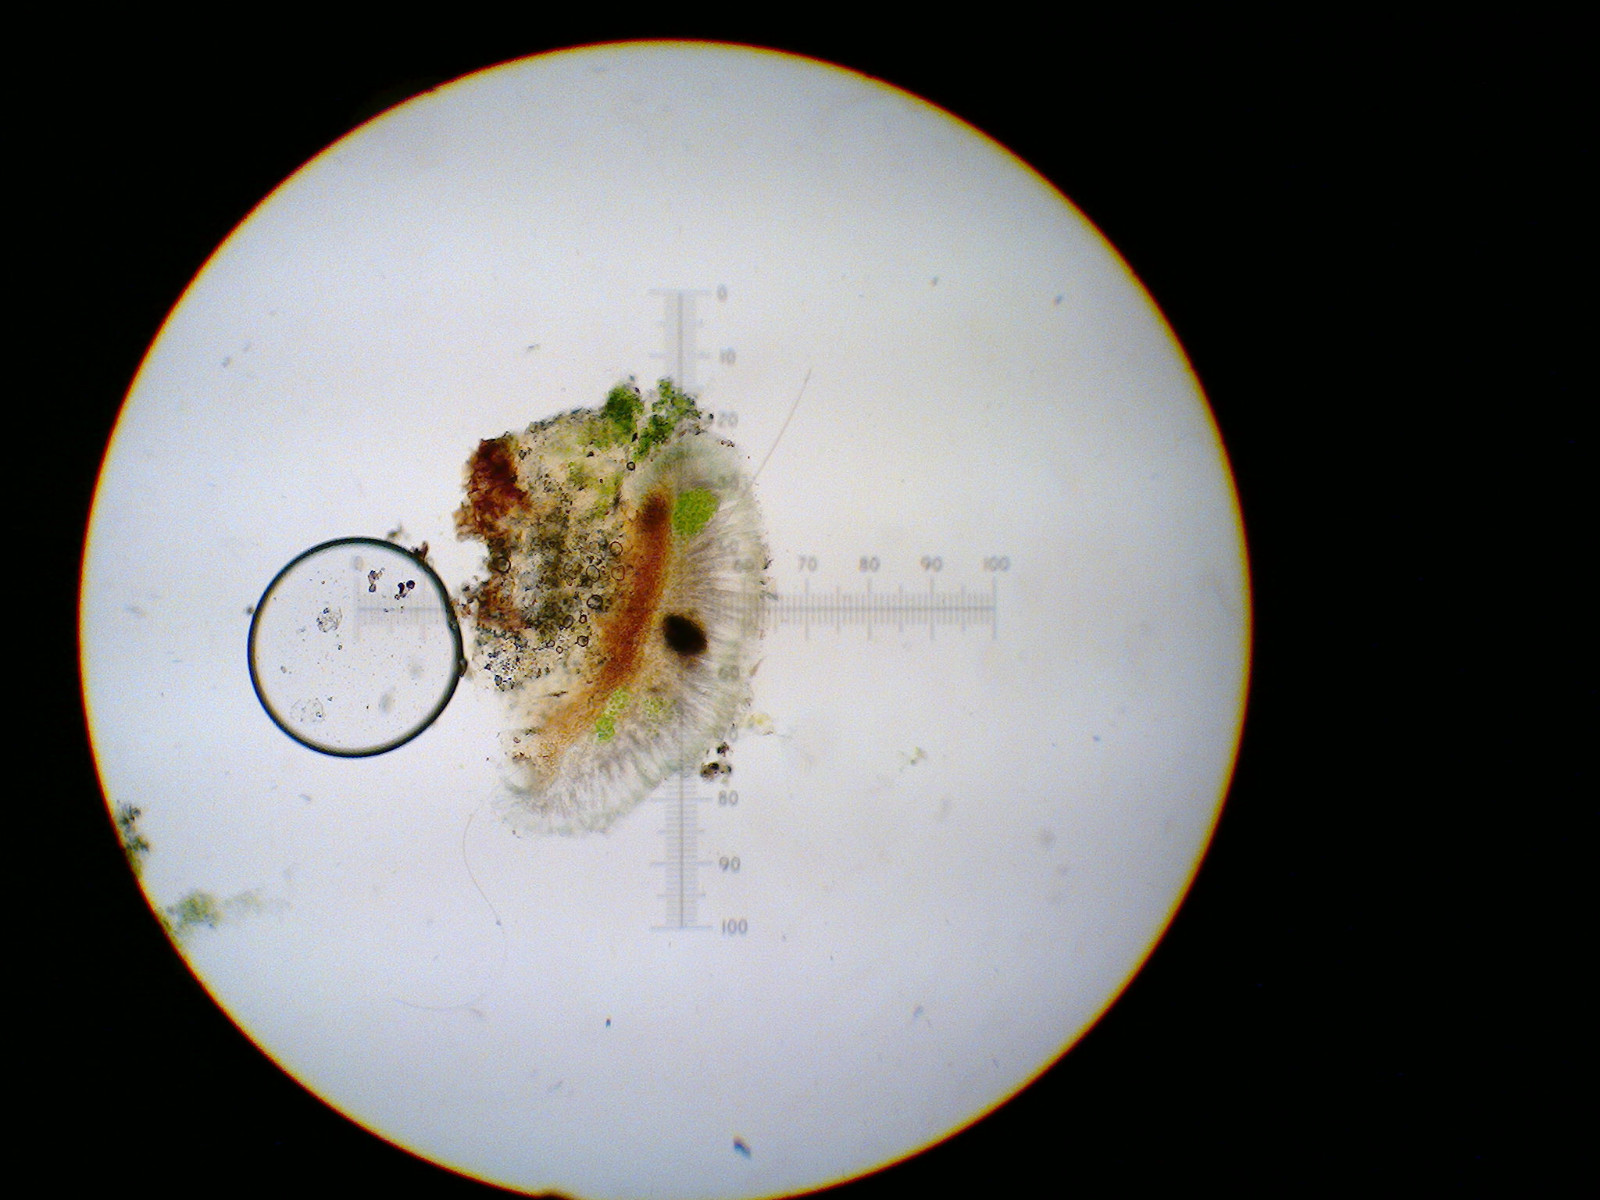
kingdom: Fungi
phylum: Ascomycota
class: Lecanoromycetes
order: Lecanorales
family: Lecanoraceae
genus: Lecidella
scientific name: Lecidella elaeochroma
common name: grågrøn skivelav
